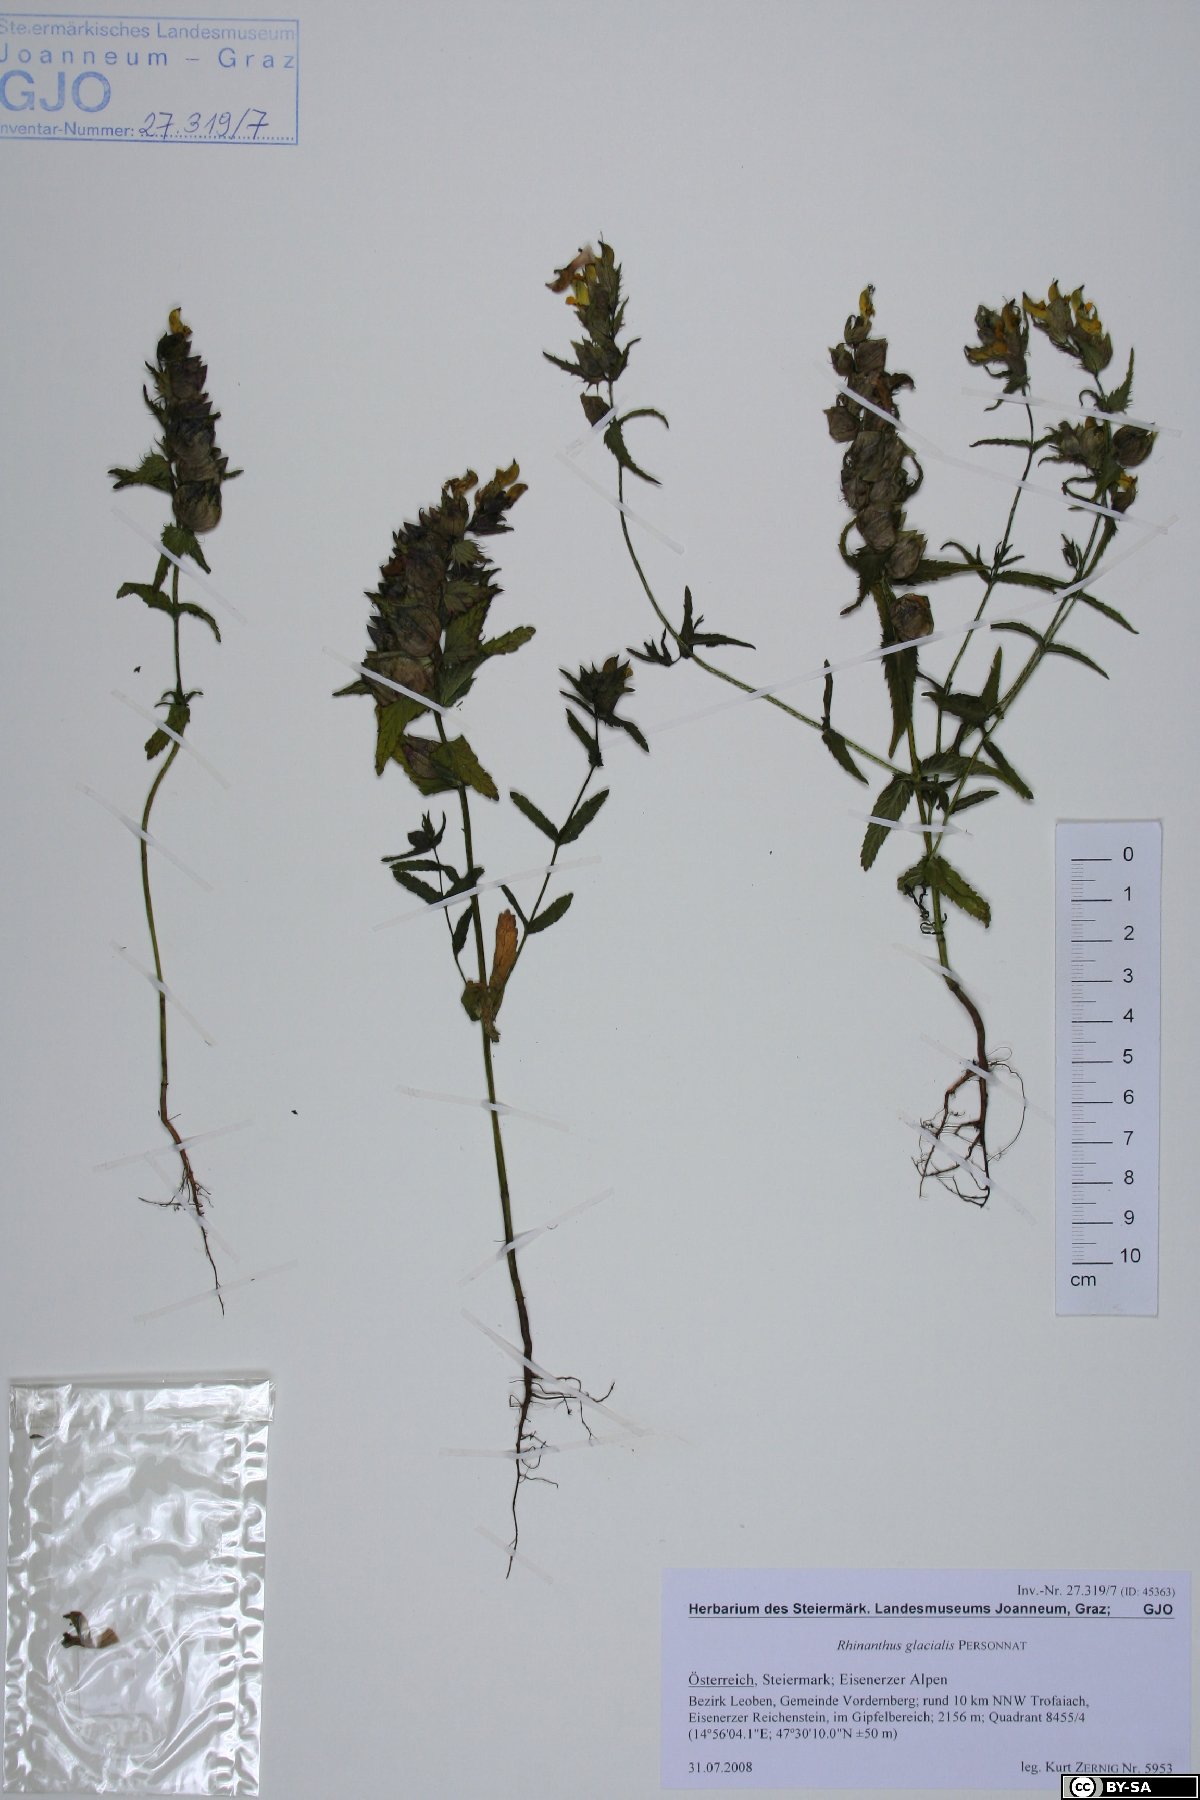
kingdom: Plantae
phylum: Tracheophyta
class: Magnoliopsida
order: Lamiales
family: Orobanchaceae
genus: Rhinanthus
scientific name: Rhinanthus glacialis
